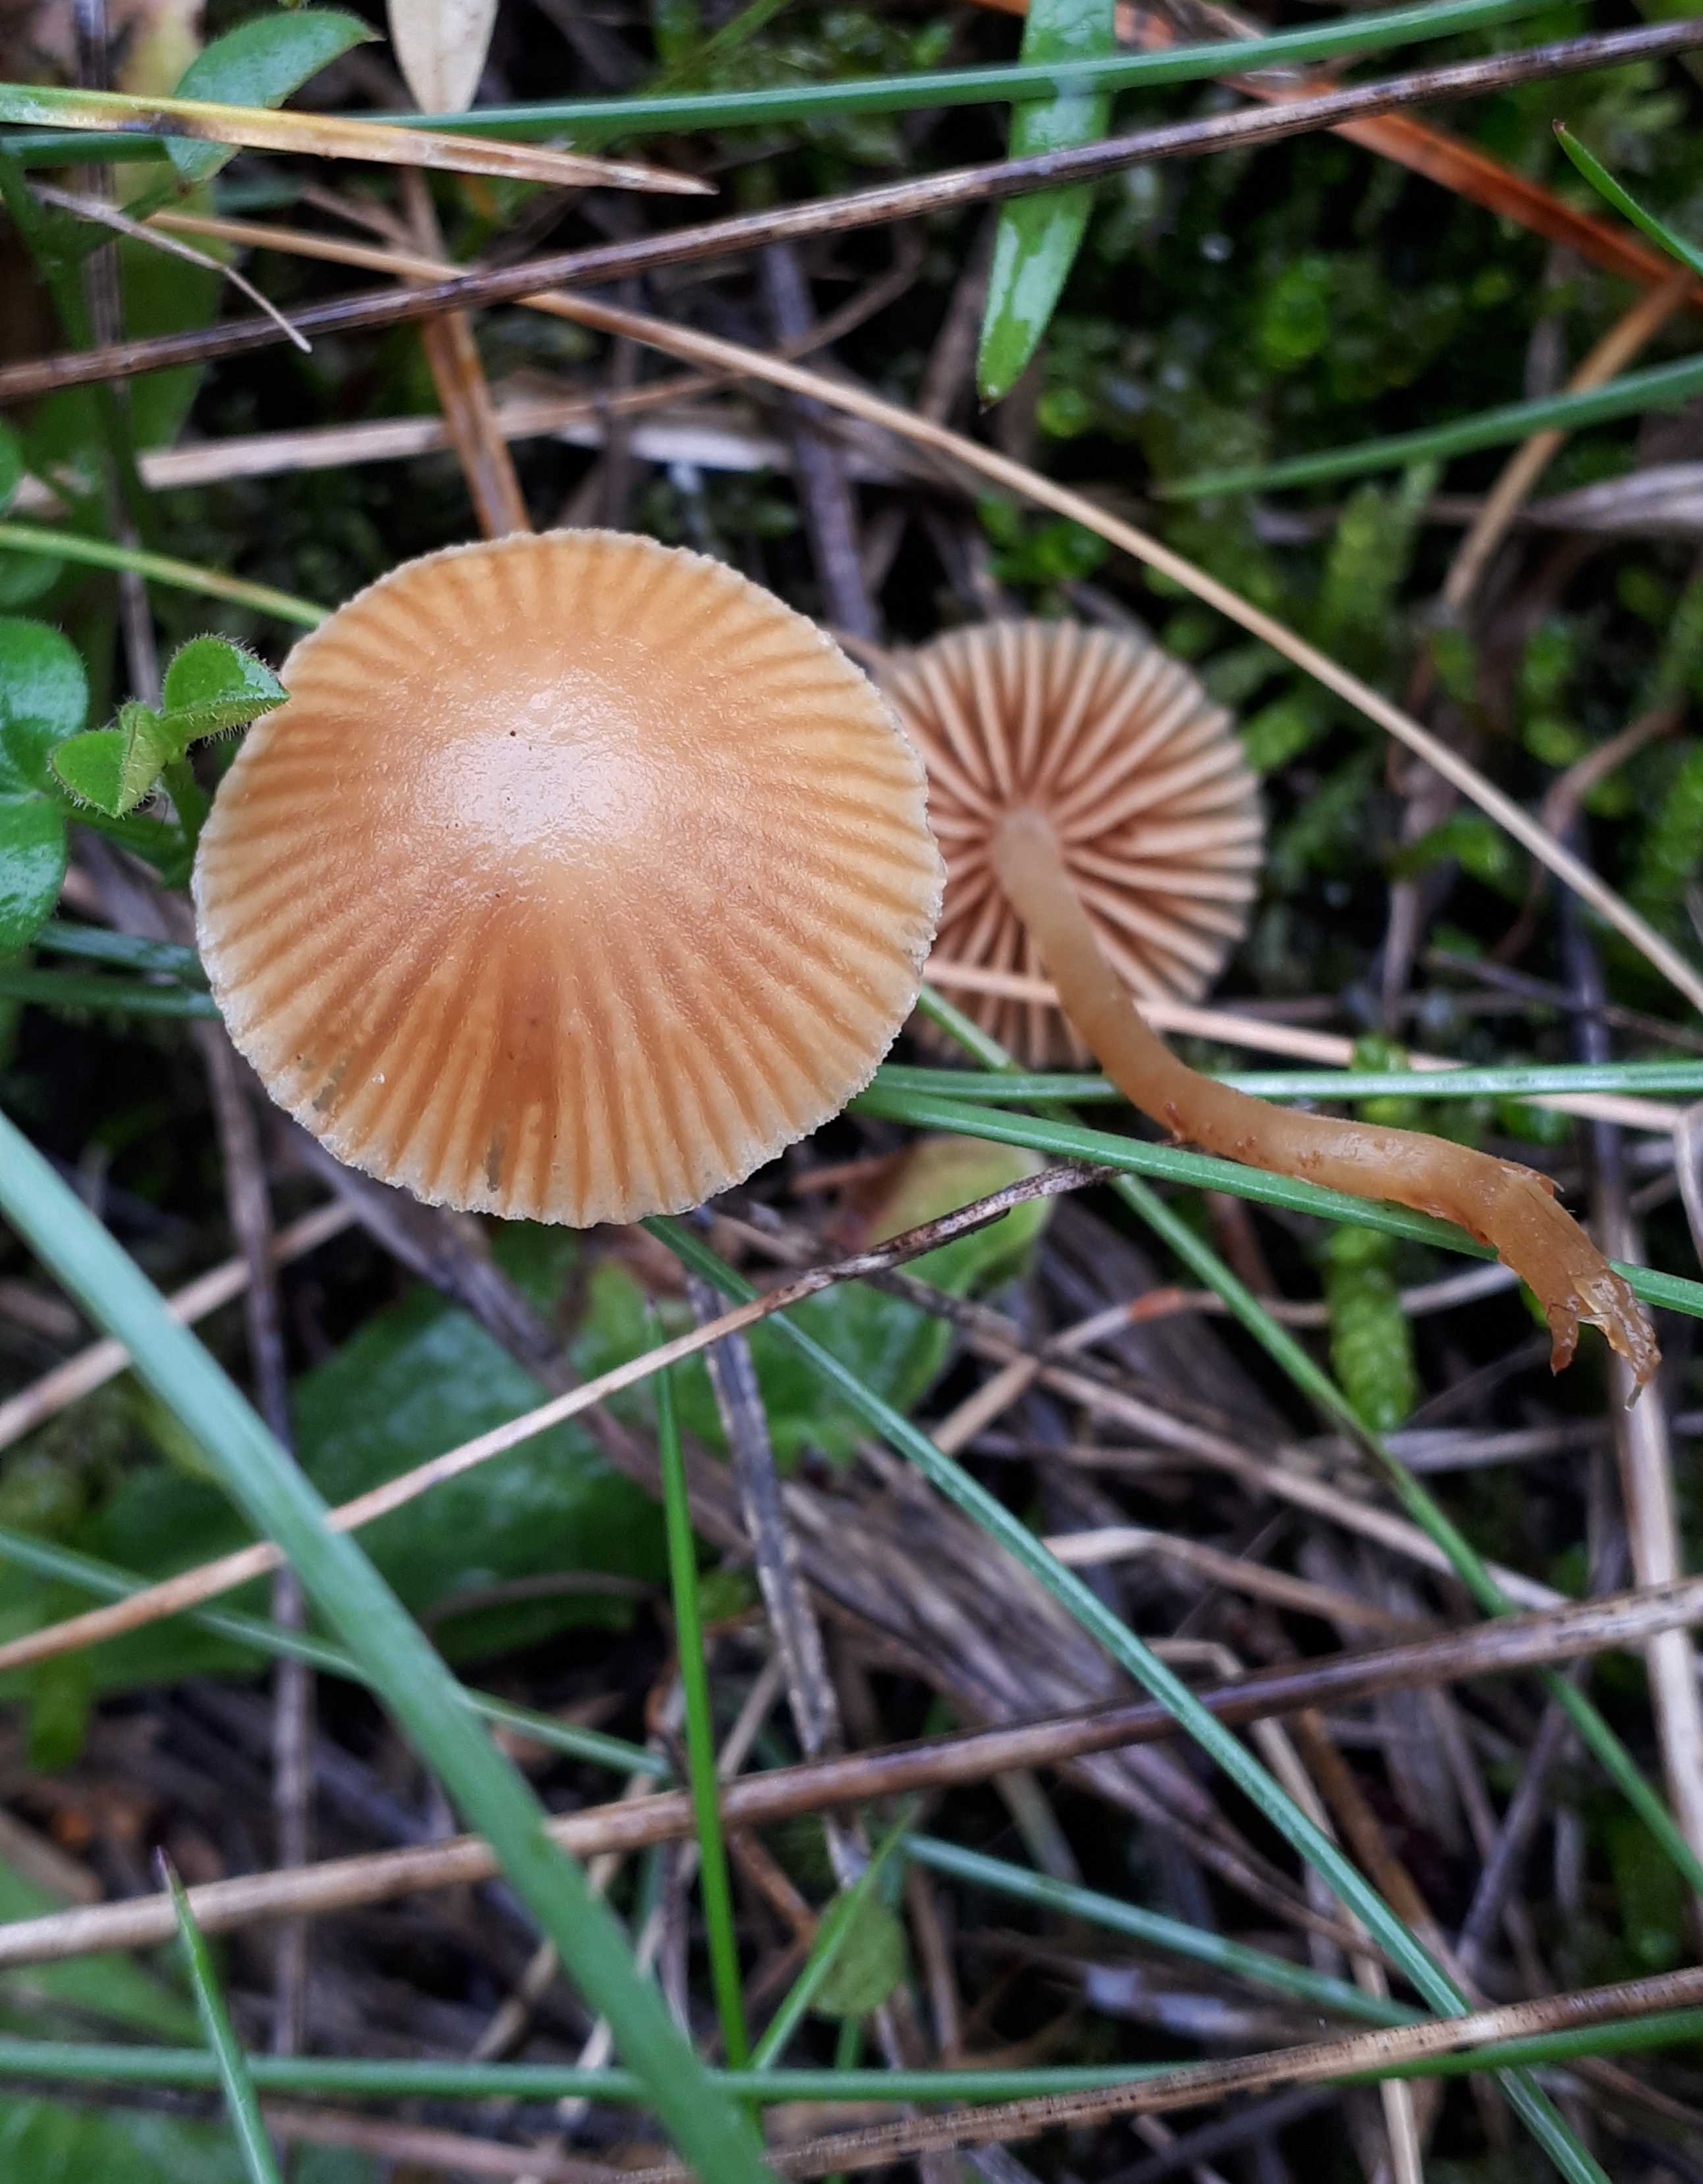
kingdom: Fungi
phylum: Basidiomycota
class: Agaricomycetes
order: Agaricales
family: Hymenogastraceae
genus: Galerina
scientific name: Galerina
